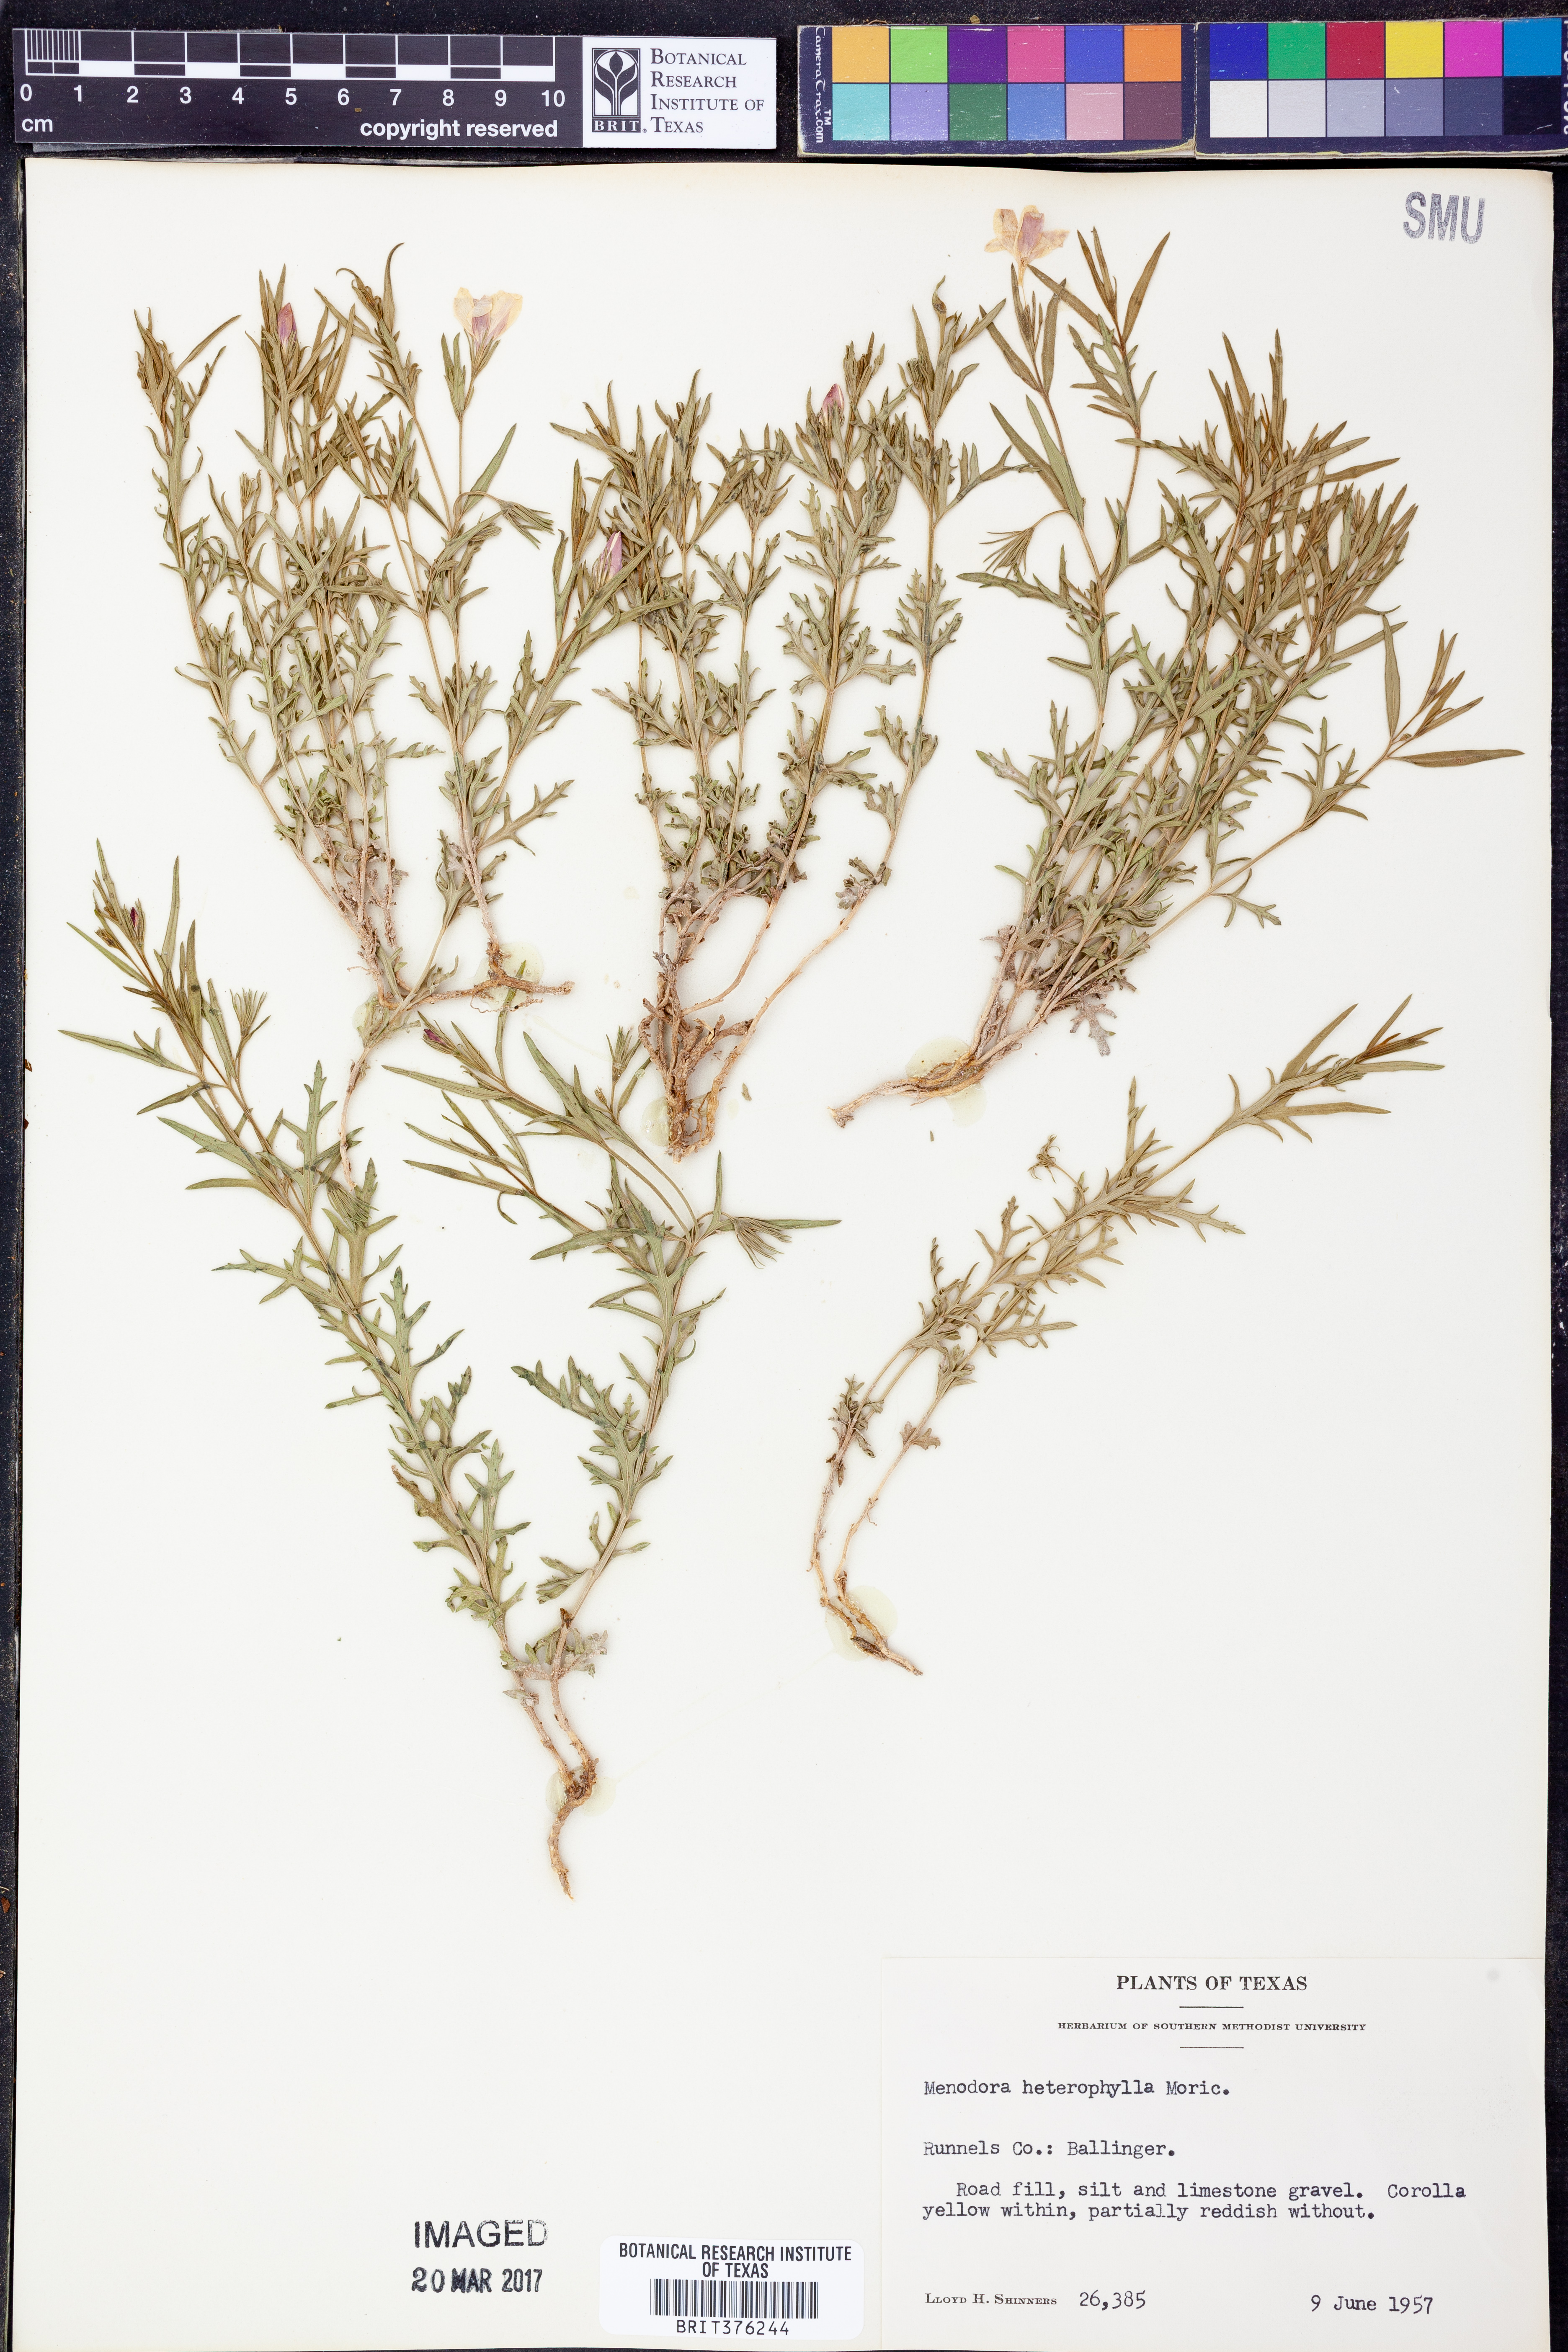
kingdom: Plantae
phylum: Tracheophyta
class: Magnoliopsida
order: Lamiales
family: Oleaceae
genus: Menodora
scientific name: Menodora heterophylla
